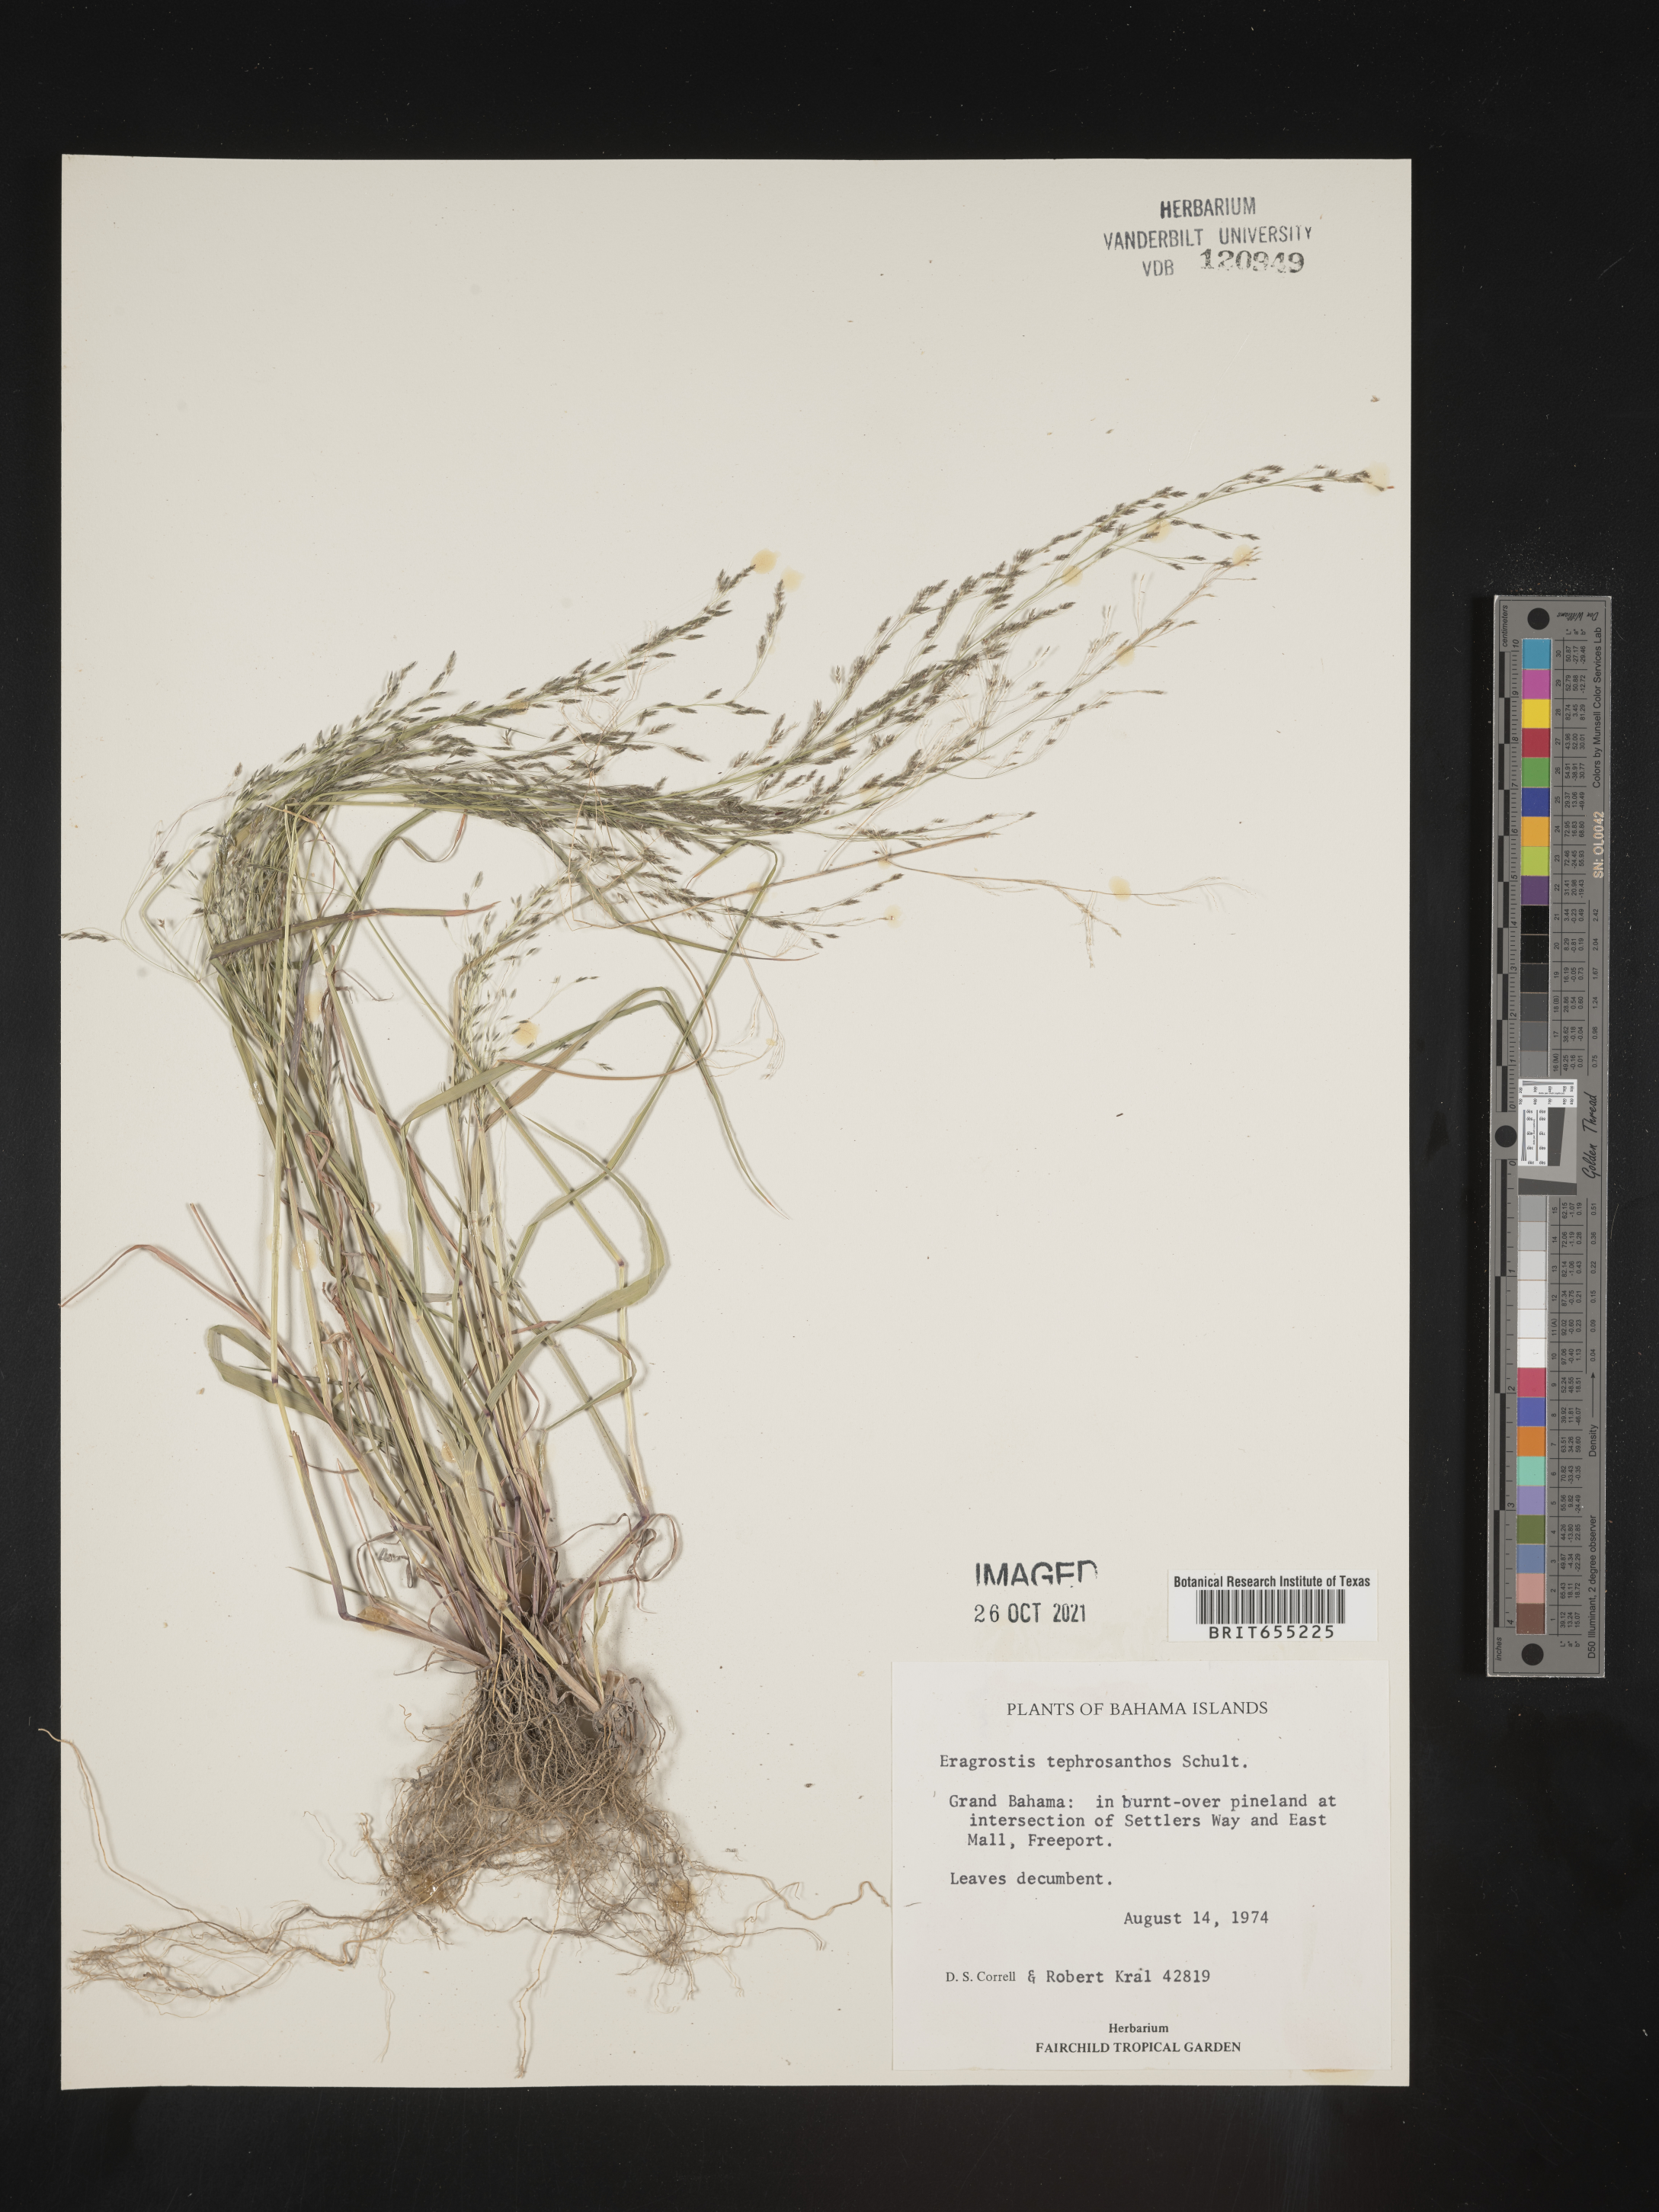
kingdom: Plantae
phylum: Tracheophyta
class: Liliopsida
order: Poales
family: Poaceae
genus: Eragrostis
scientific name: Eragrostis
